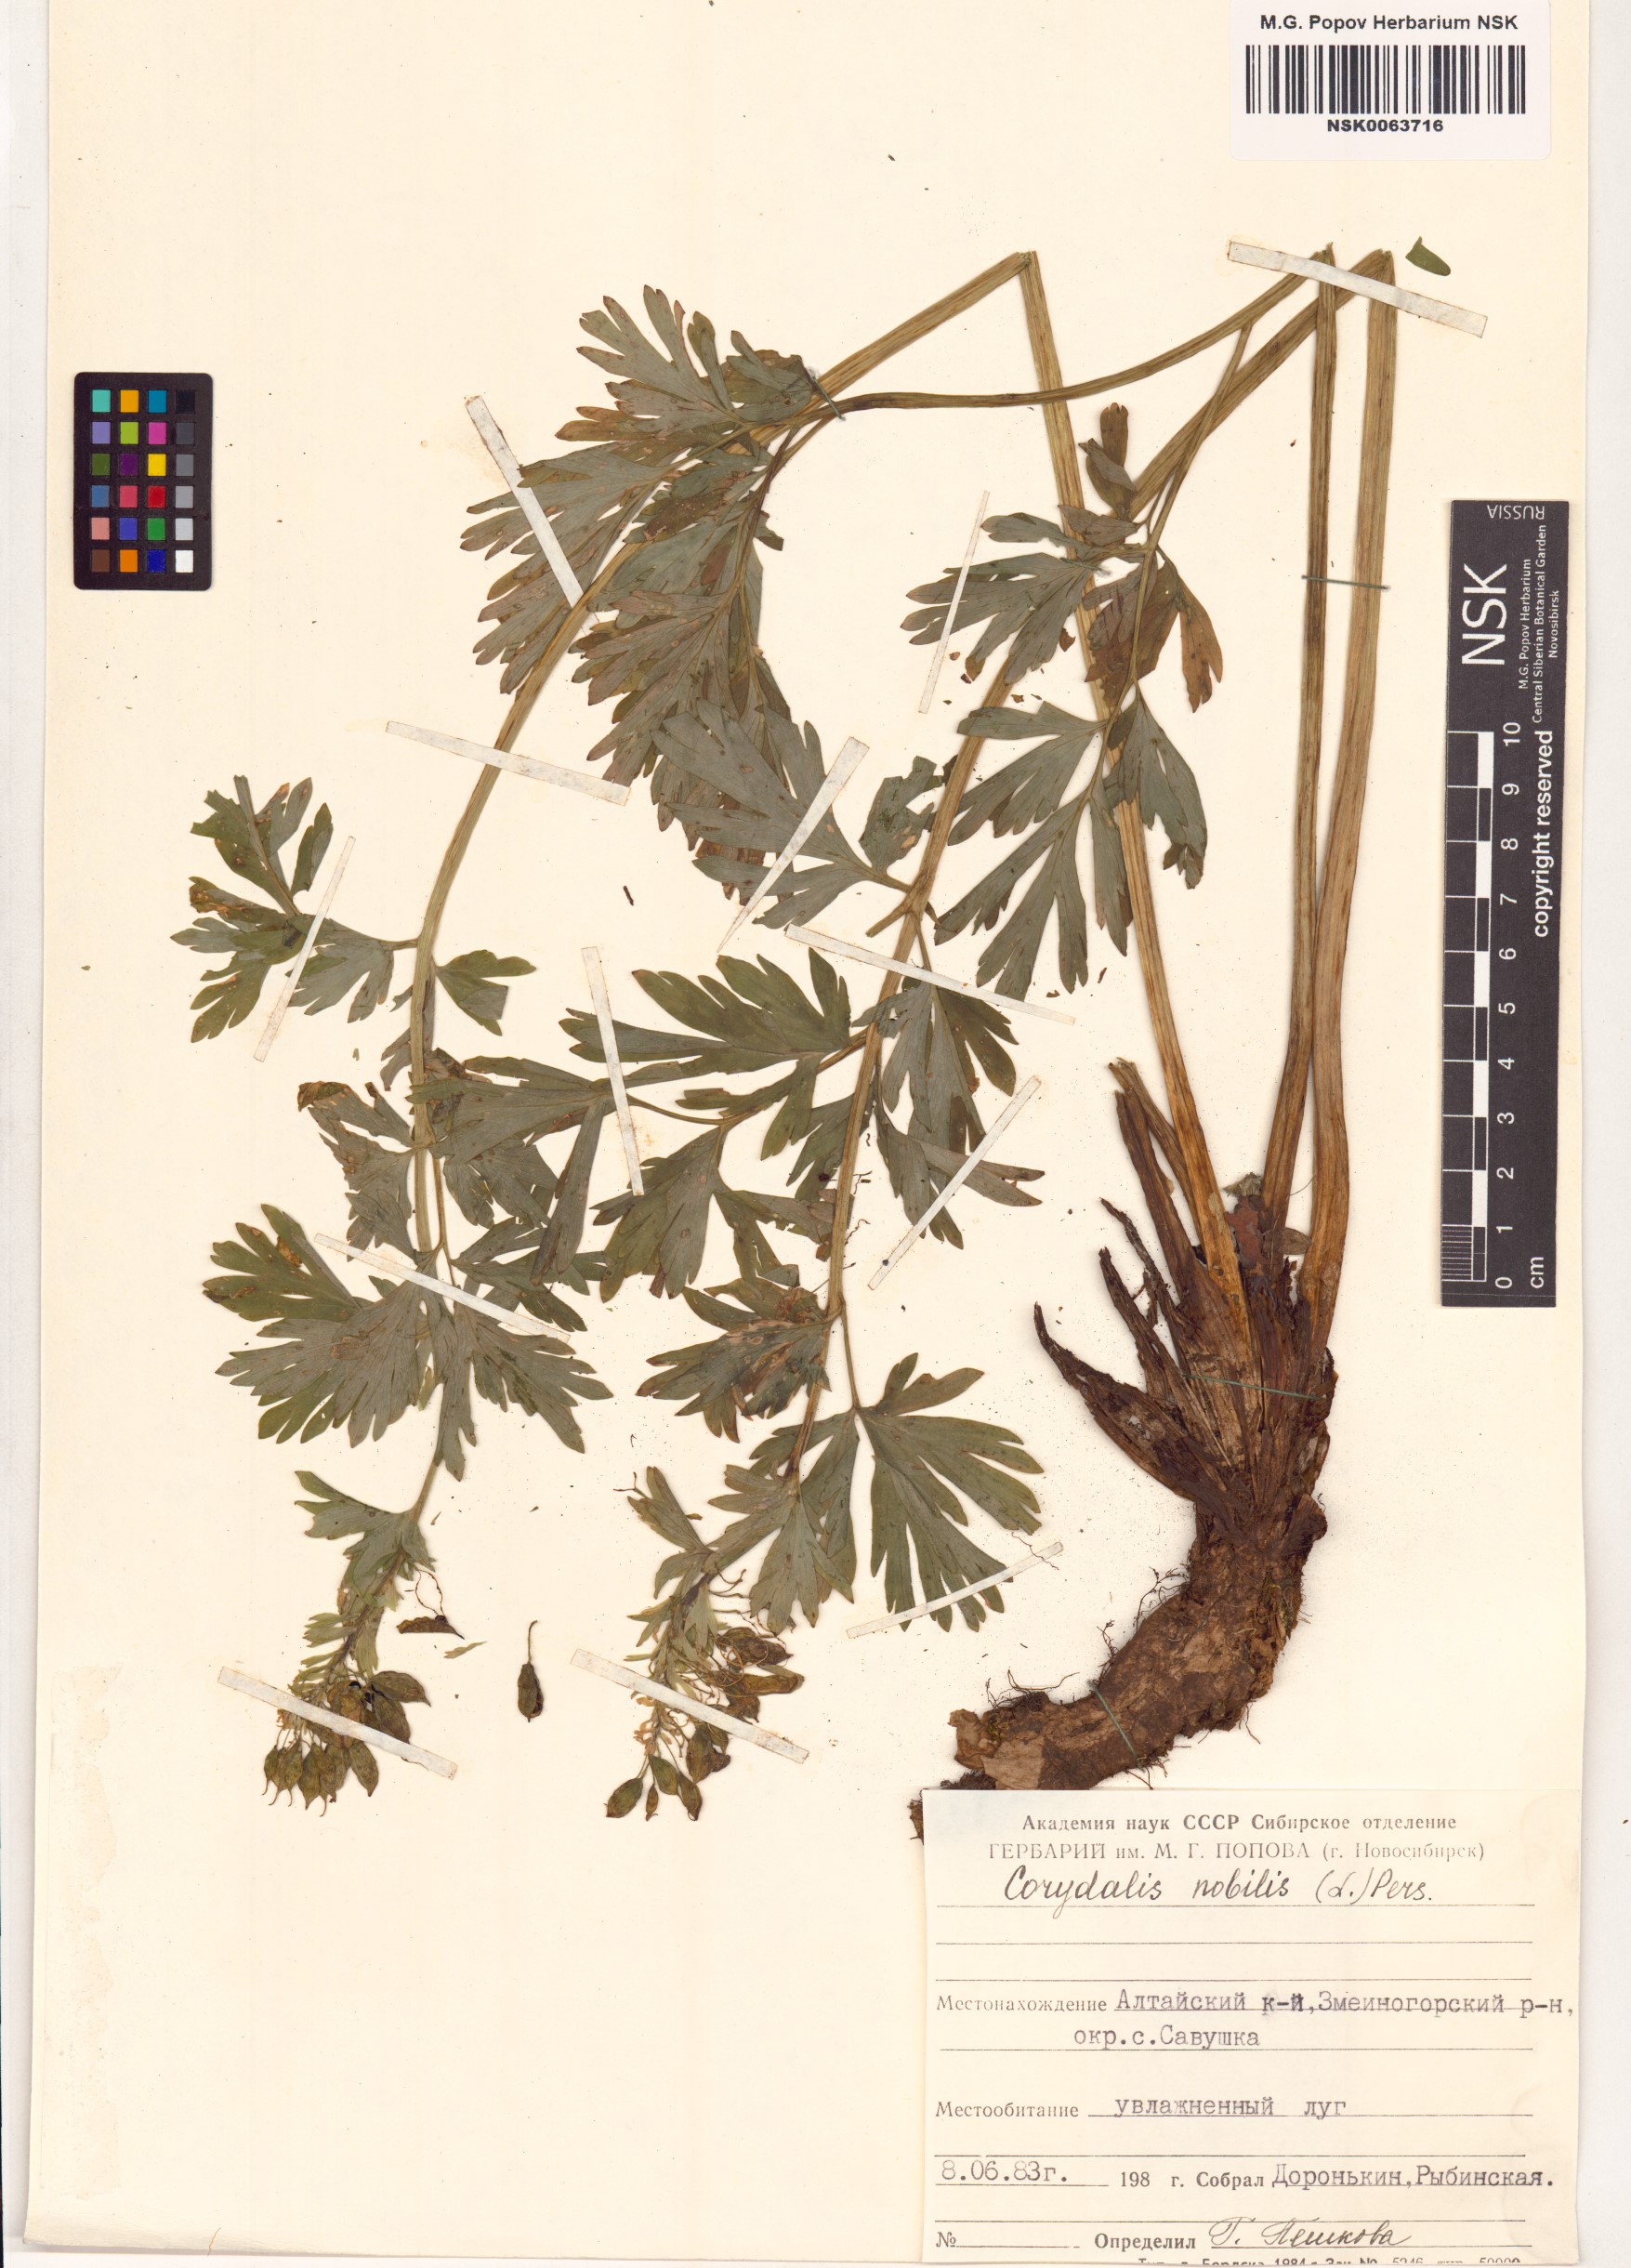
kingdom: Plantae
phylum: Tracheophyta
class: Magnoliopsida
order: Ranunculales
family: Papaveraceae
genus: Corydalis
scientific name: Corydalis nobilis
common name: Siberian corydalis
